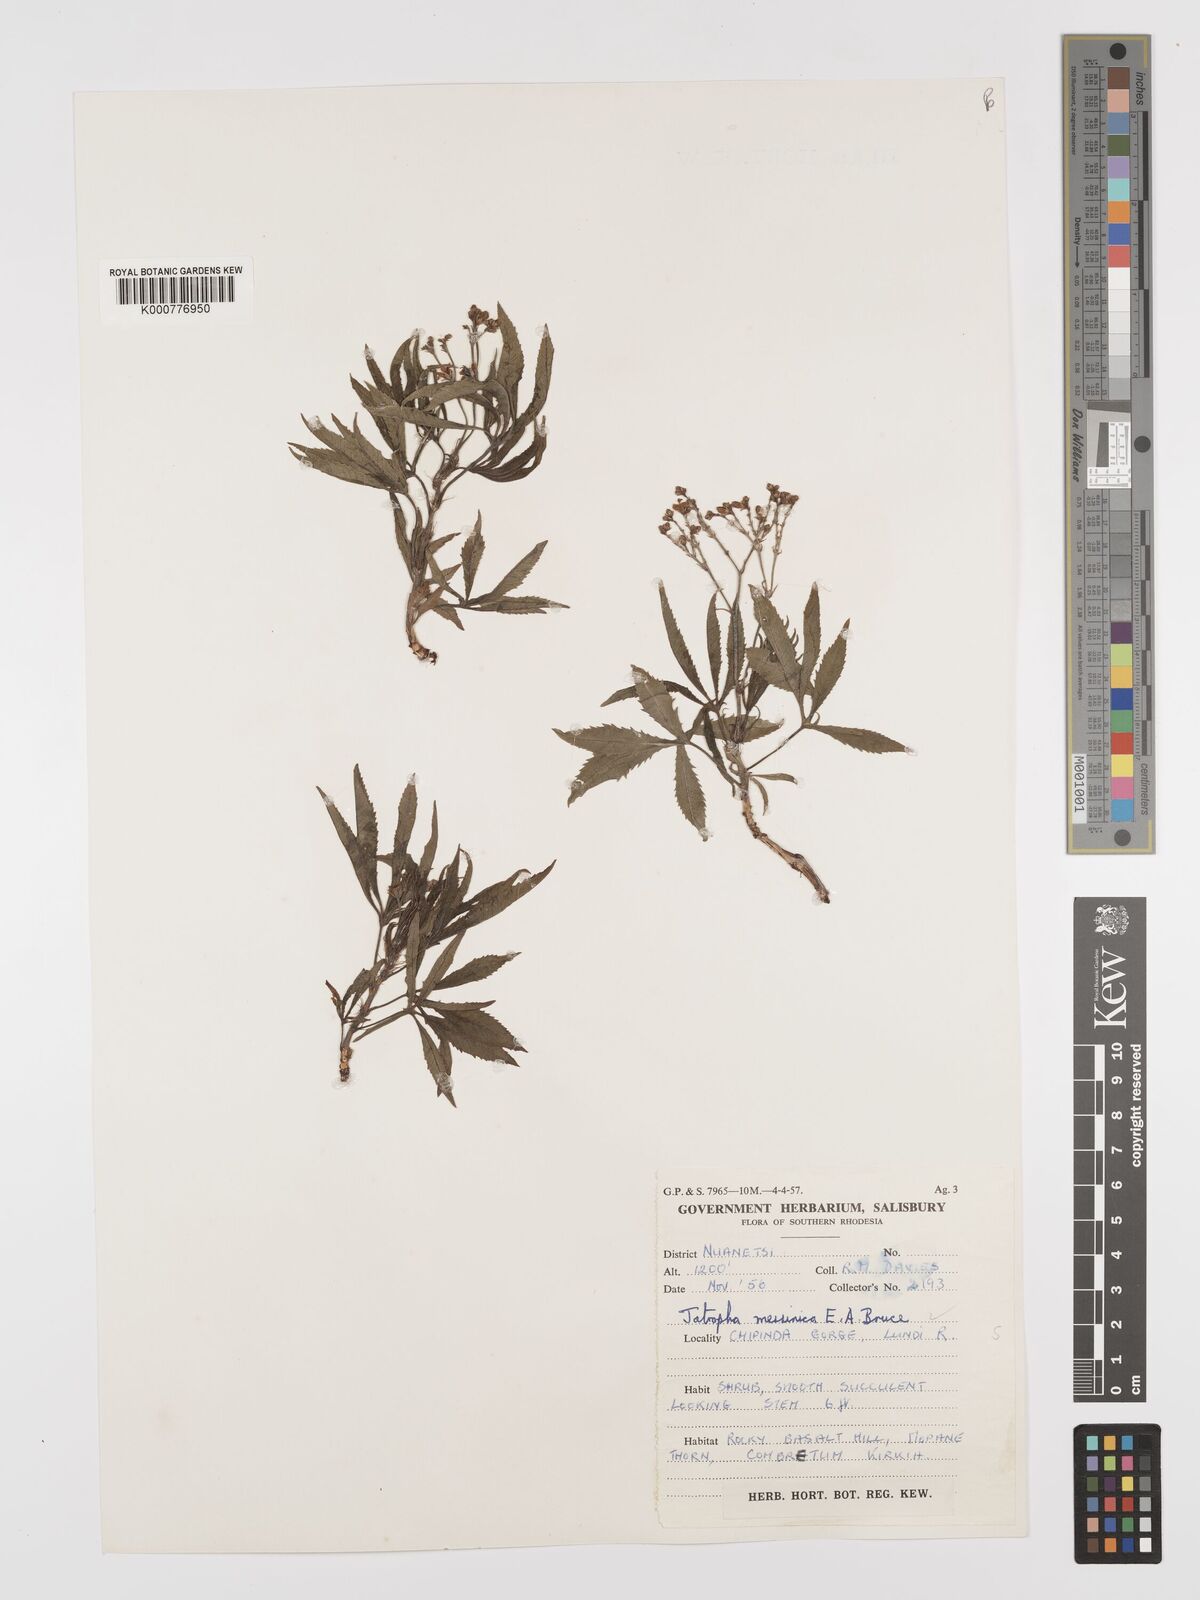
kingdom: Plantae
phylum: Tracheophyta
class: Magnoliopsida
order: Malpighiales
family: Euphorbiaceae
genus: Jatropha
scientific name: Jatropha spicata
